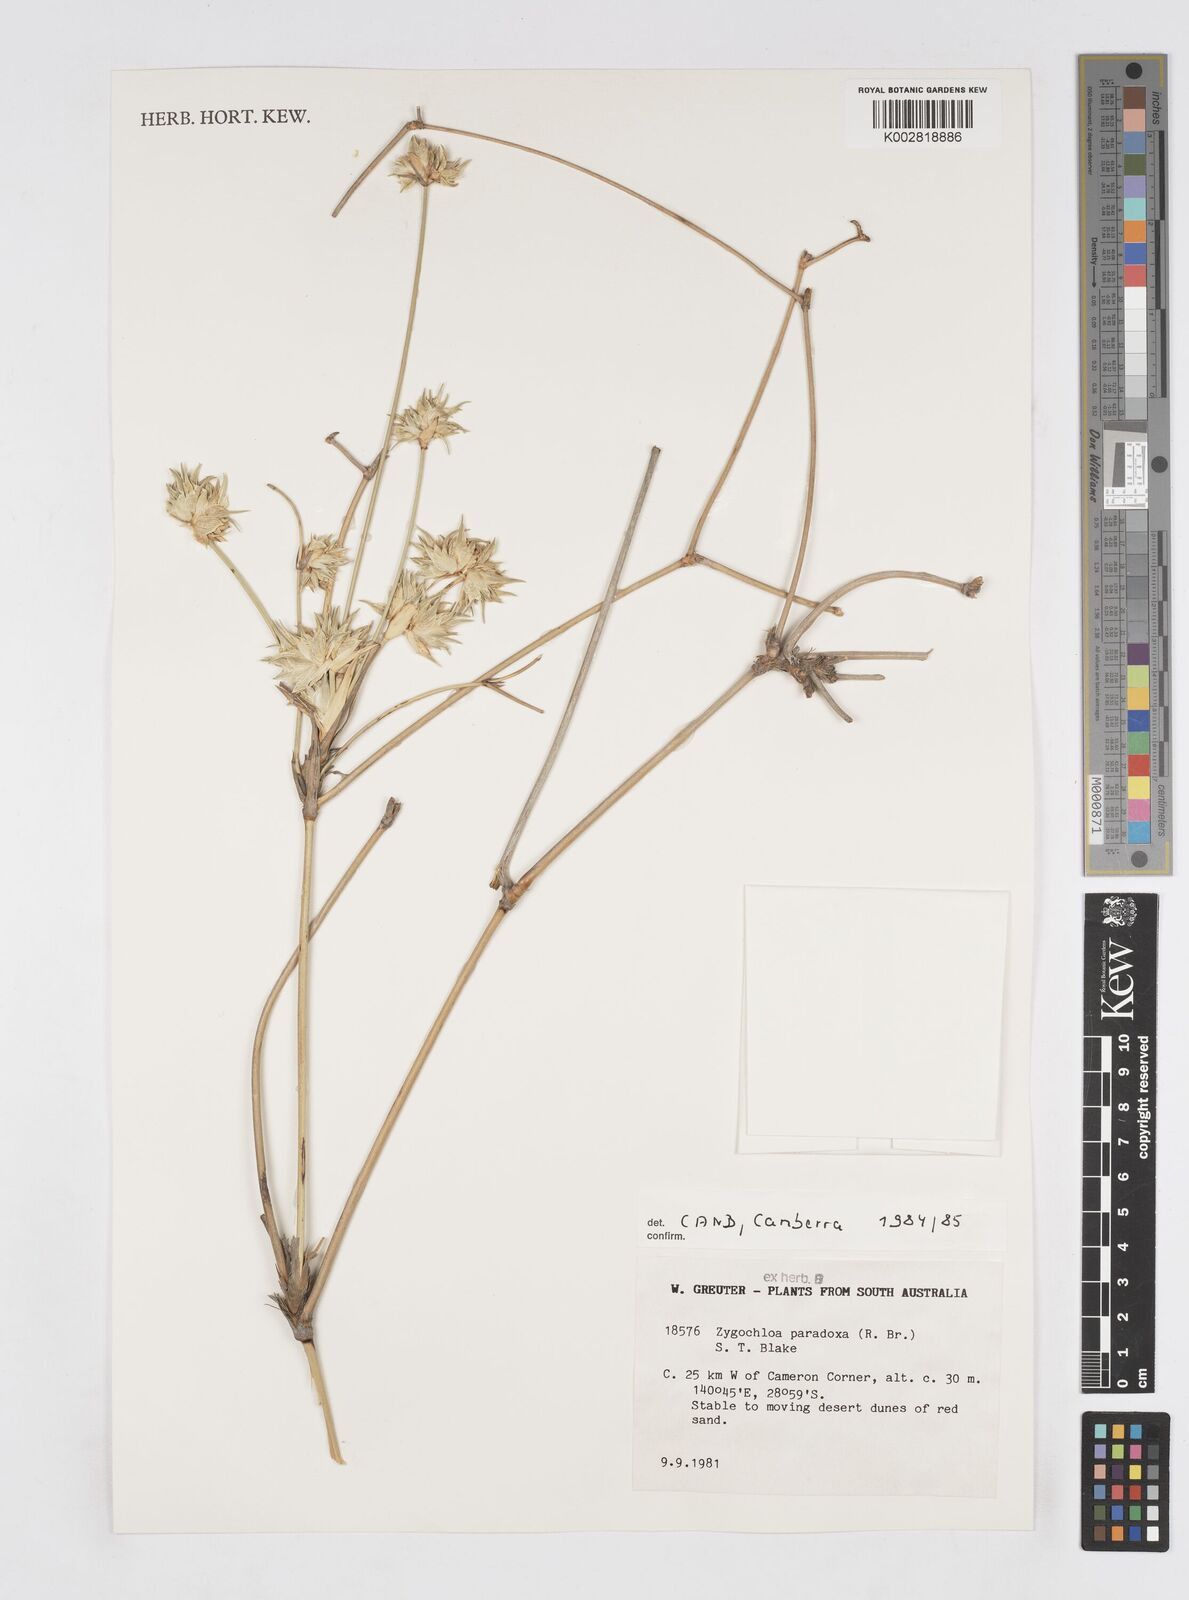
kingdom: Plantae
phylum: Tracheophyta
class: Liliopsida
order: Poales
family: Poaceae
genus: Zygochloa
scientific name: Zygochloa paradoxa
